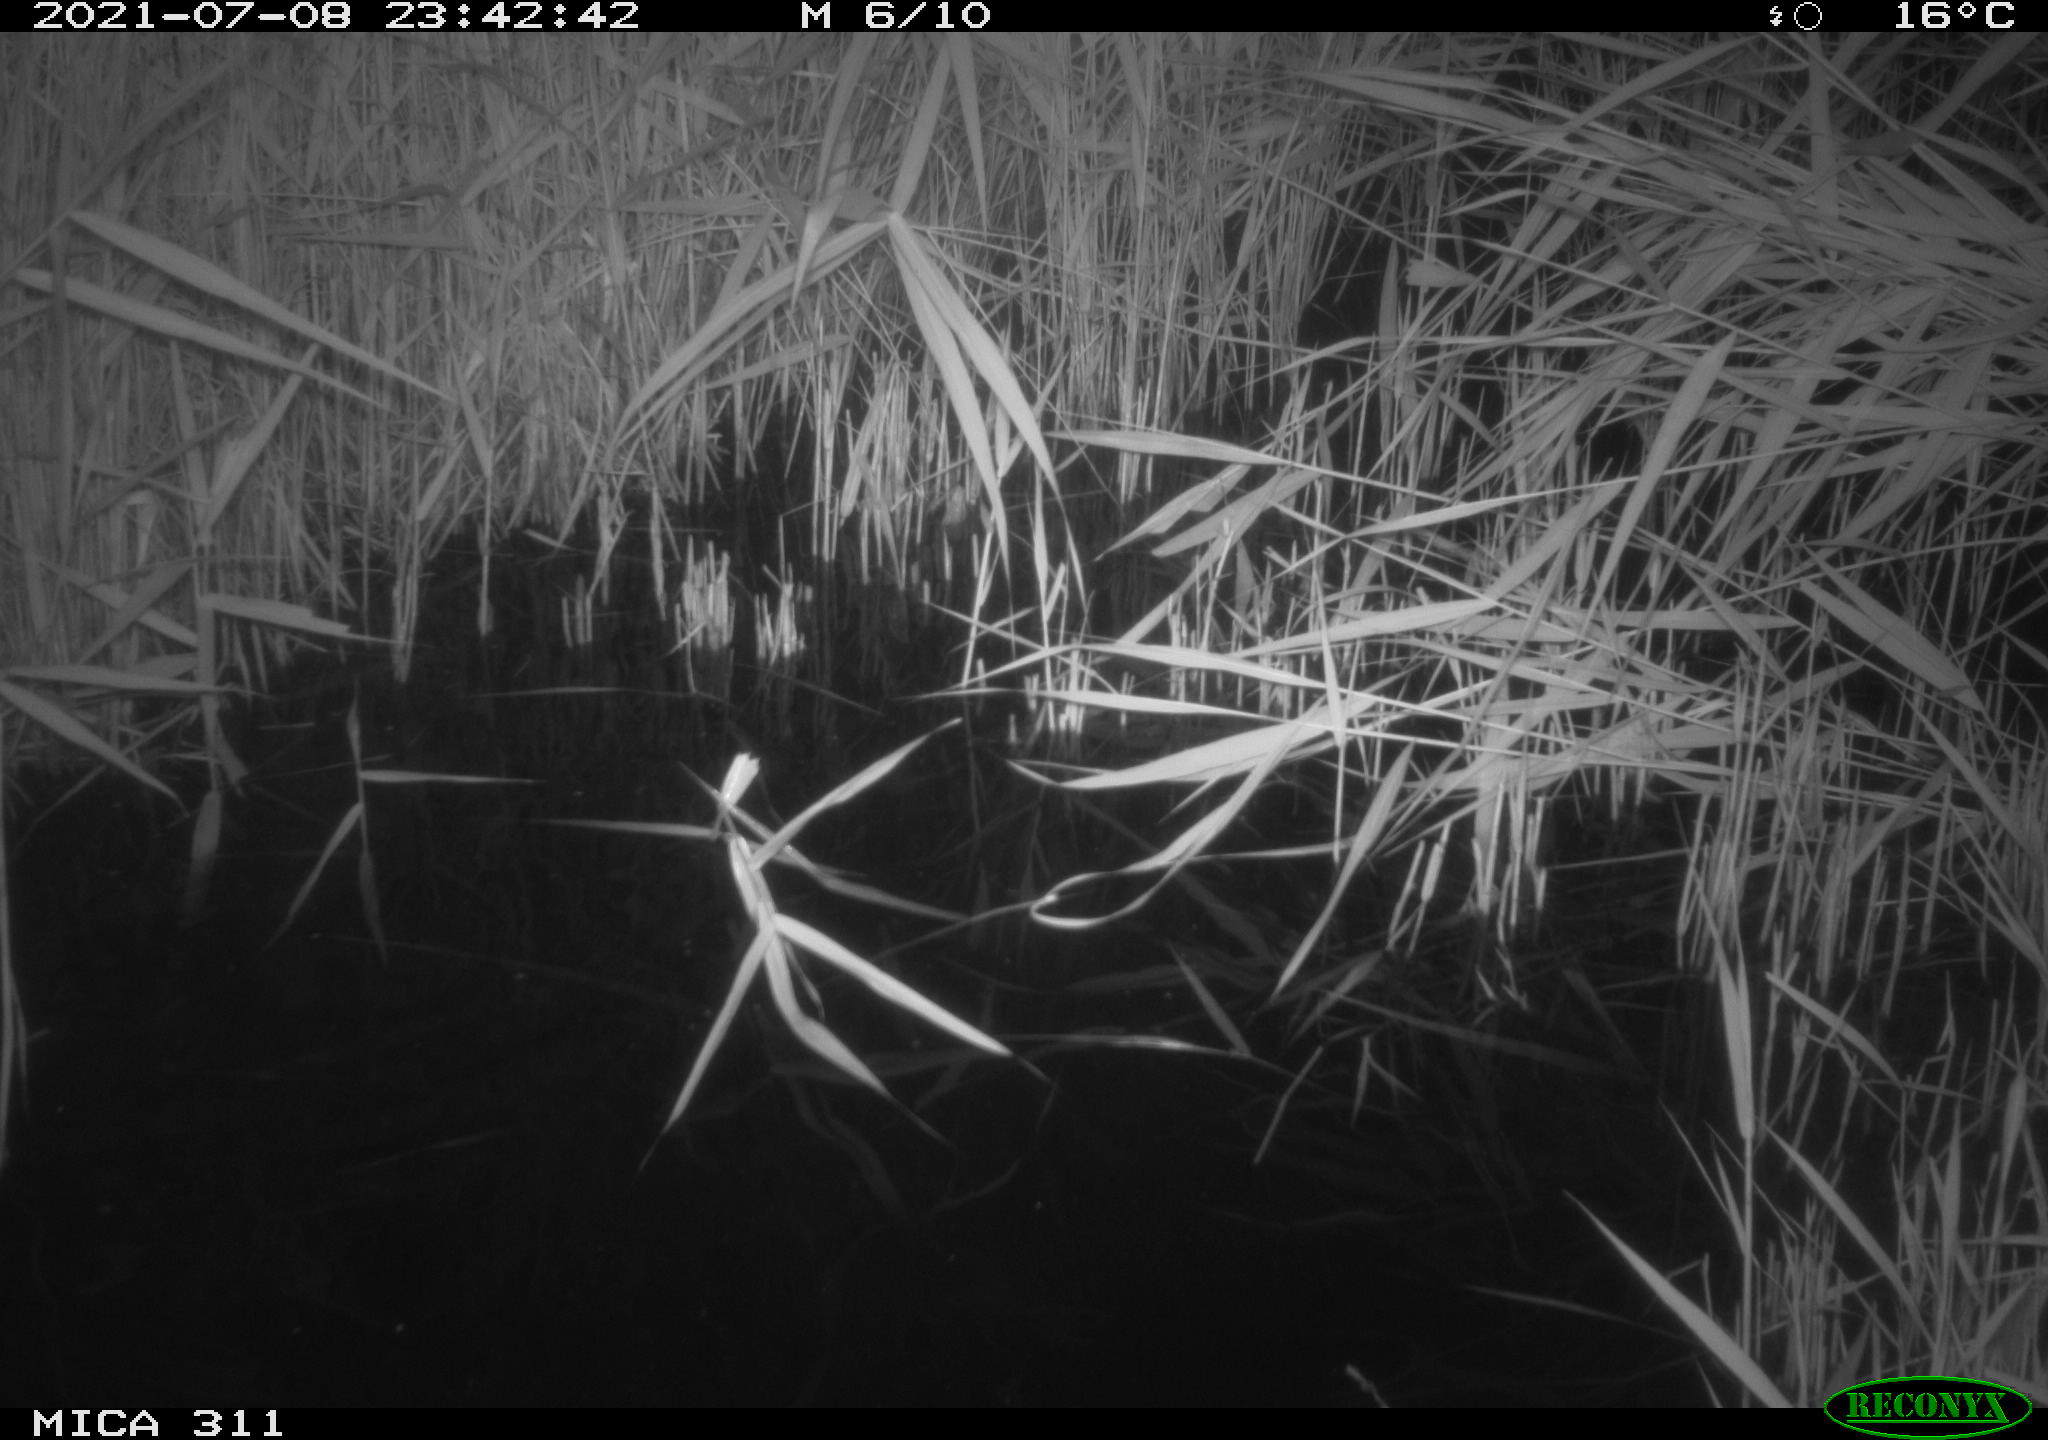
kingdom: Animalia
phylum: Chordata
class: Mammalia
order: Rodentia
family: Muridae
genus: Rattus
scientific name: Rattus norvegicus
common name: Brown rat
